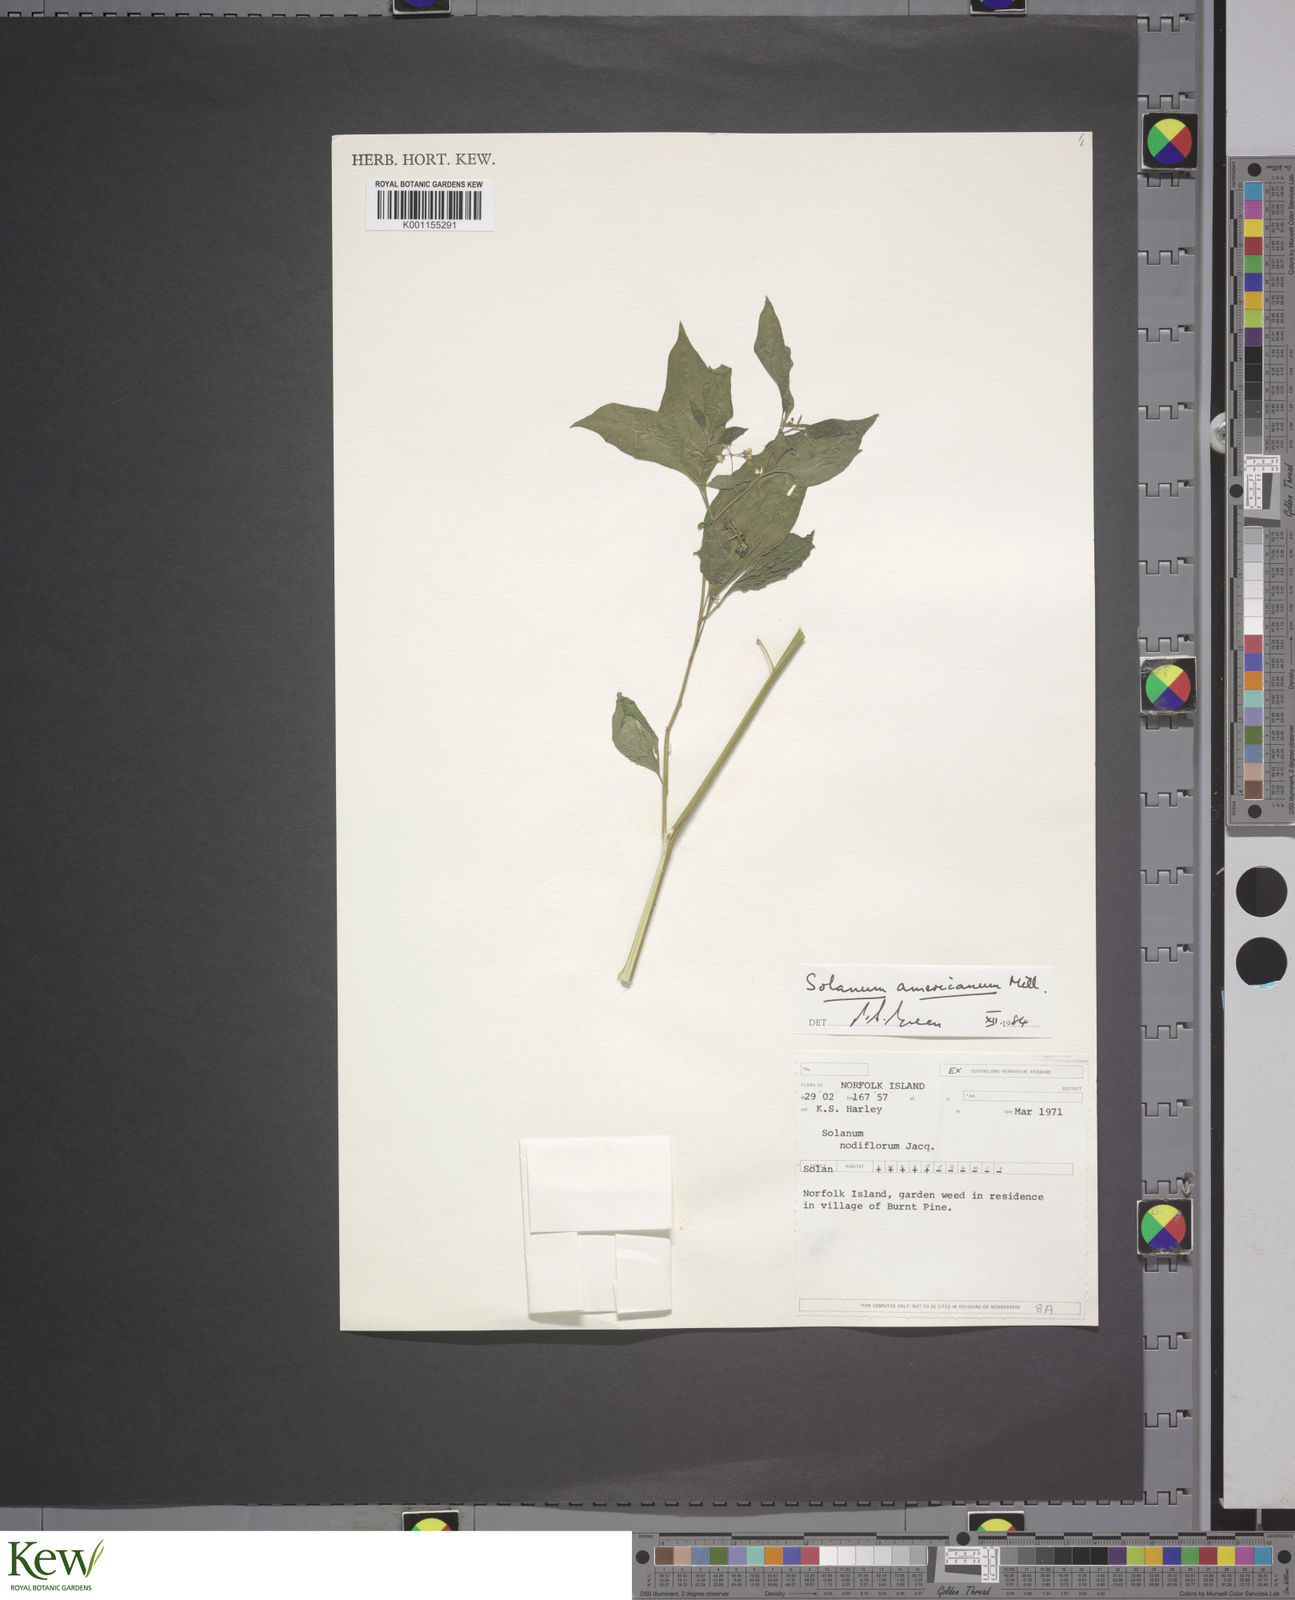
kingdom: Plantae
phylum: Tracheophyta
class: Magnoliopsida
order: Solanales
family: Solanaceae
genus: Solanum
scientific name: Solanum
